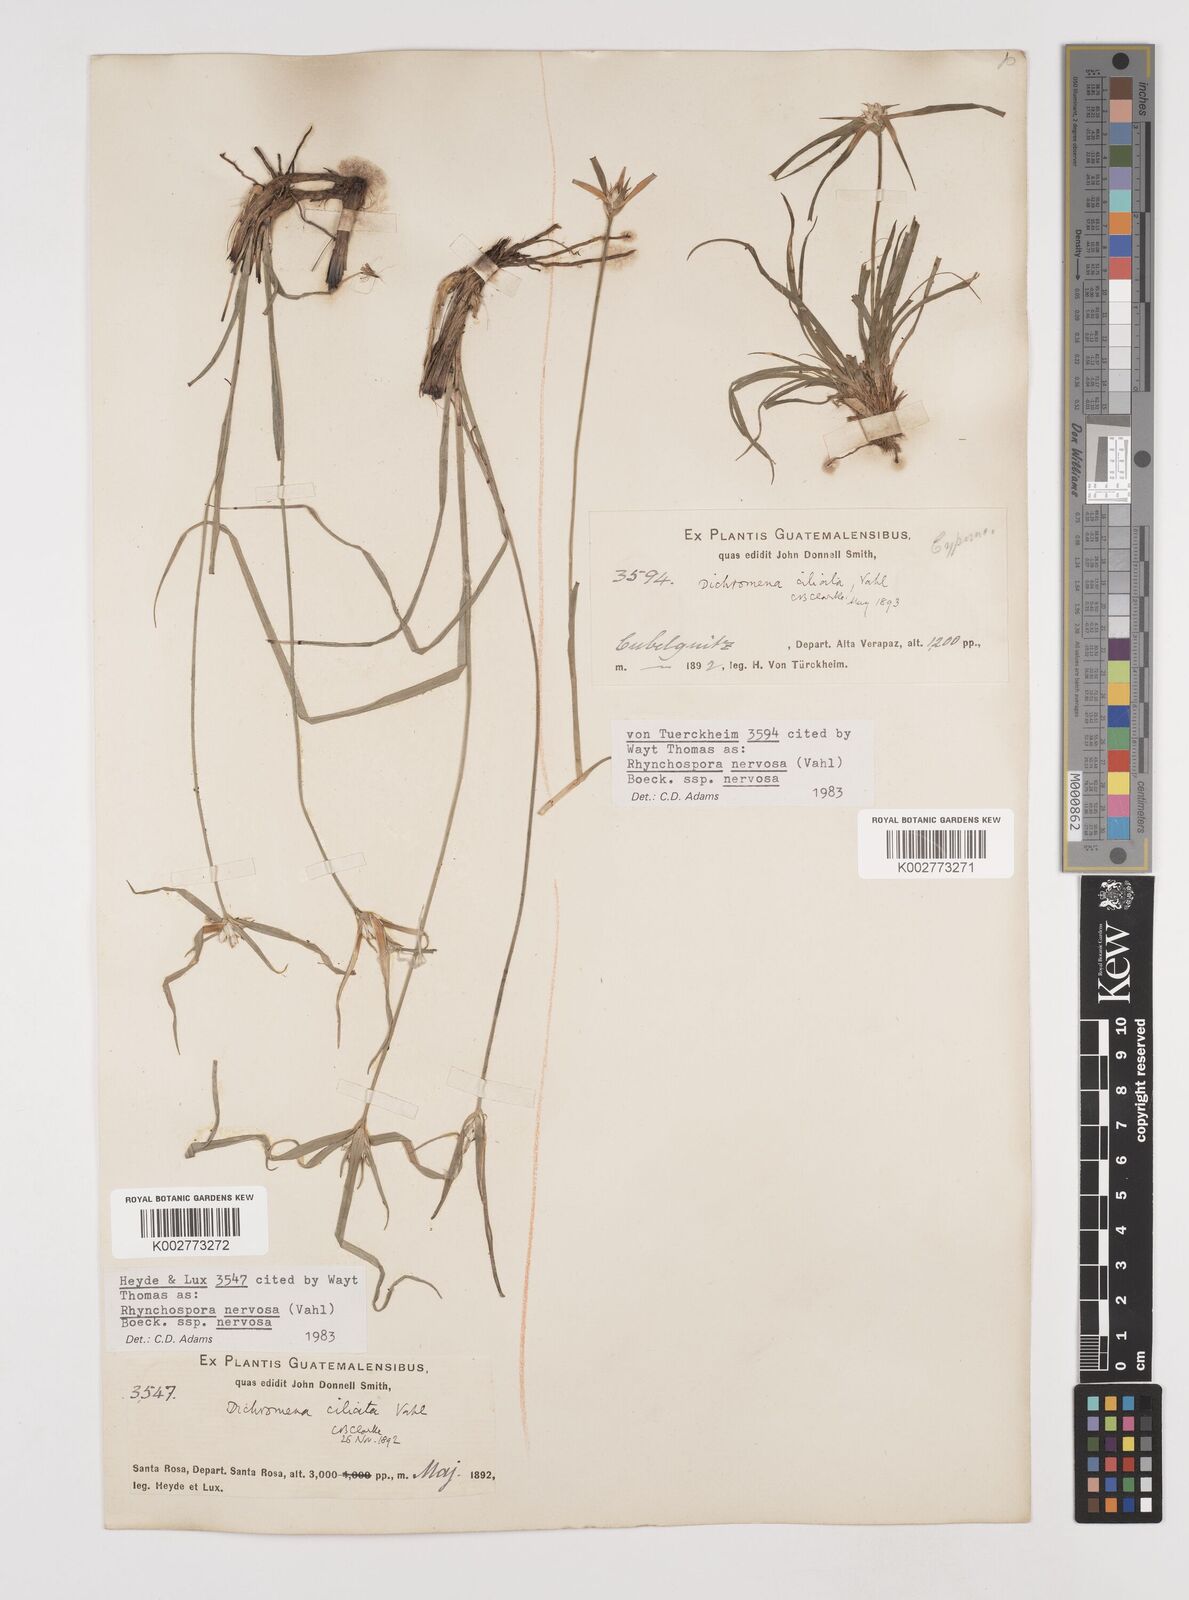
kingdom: Plantae
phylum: Tracheophyta
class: Liliopsida
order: Poales
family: Cyperaceae
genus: Rhynchospora
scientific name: Rhynchospora nervosa
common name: Star sedge
